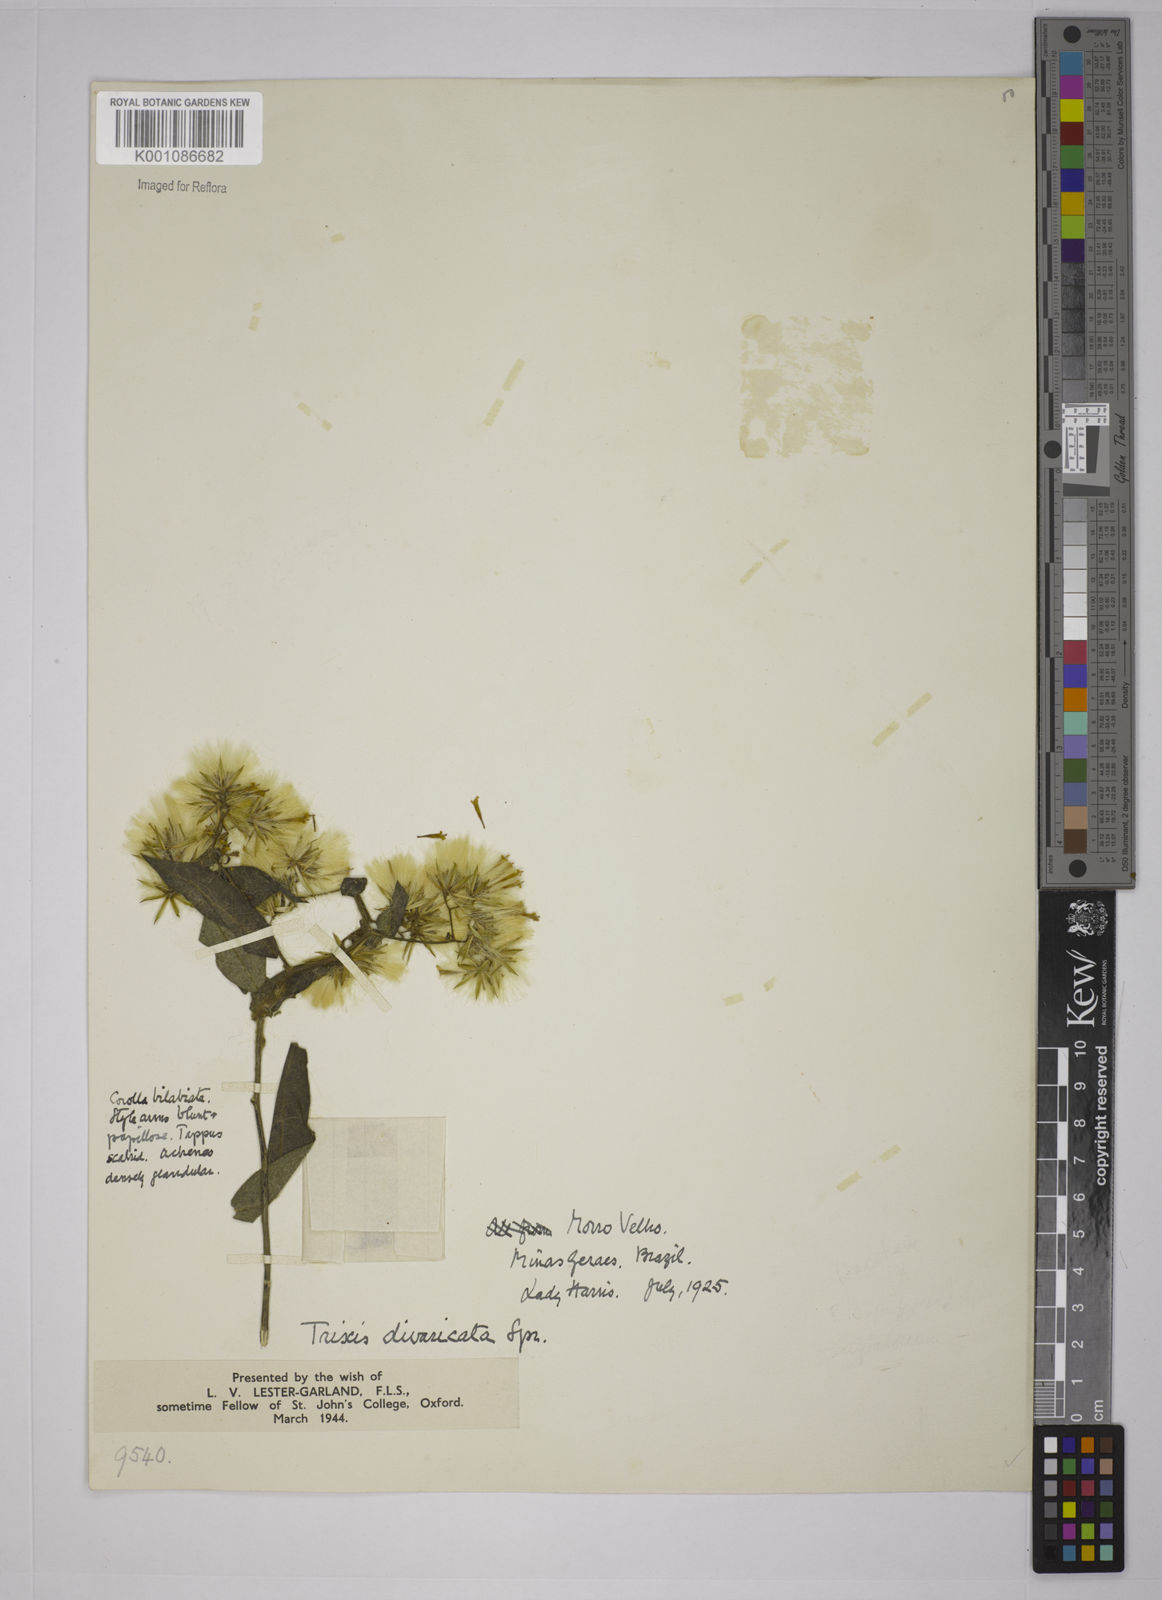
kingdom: Plantae
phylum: Tracheophyta
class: Magnoliopsida
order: Asterales
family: Asteraceae
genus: Trixis
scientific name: Trixis divaricata
